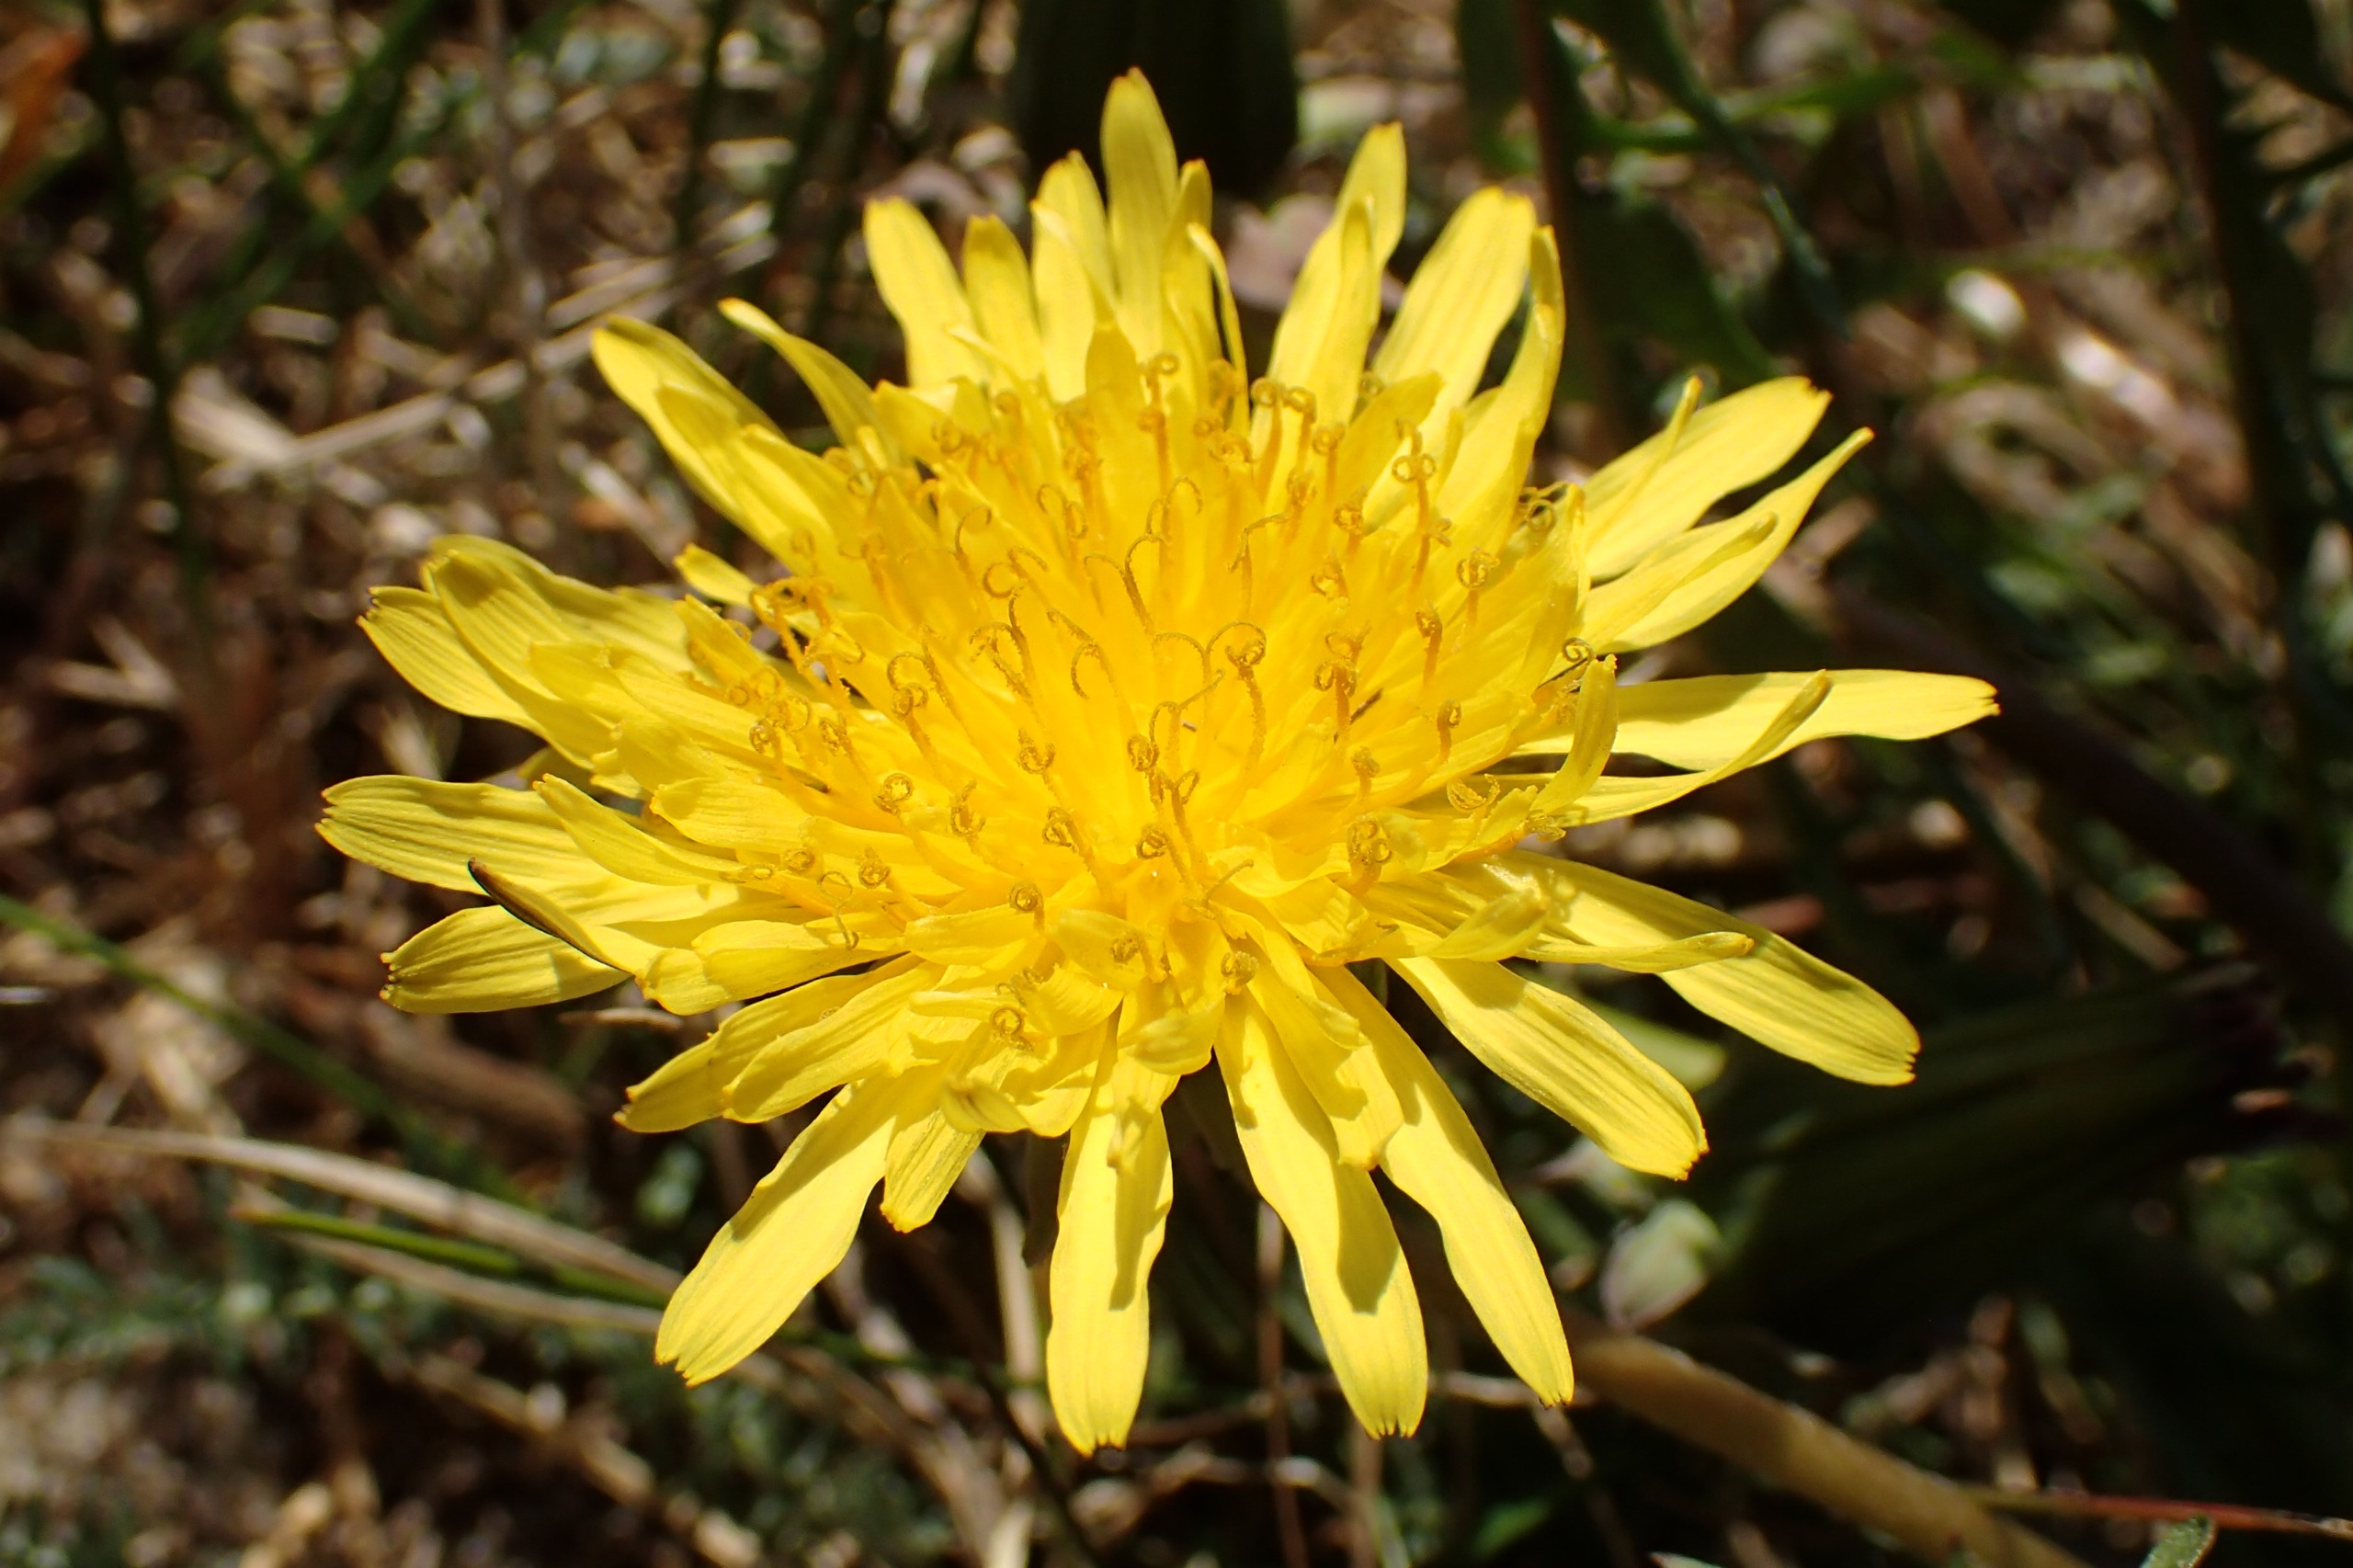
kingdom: Plantae
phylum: Tracheophyta
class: Magnoliopsida
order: Asterales
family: Asteraceae
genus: Taraxacum
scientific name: Taraxacum lacistophyllum
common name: Bakke-sandmælkebøtte
